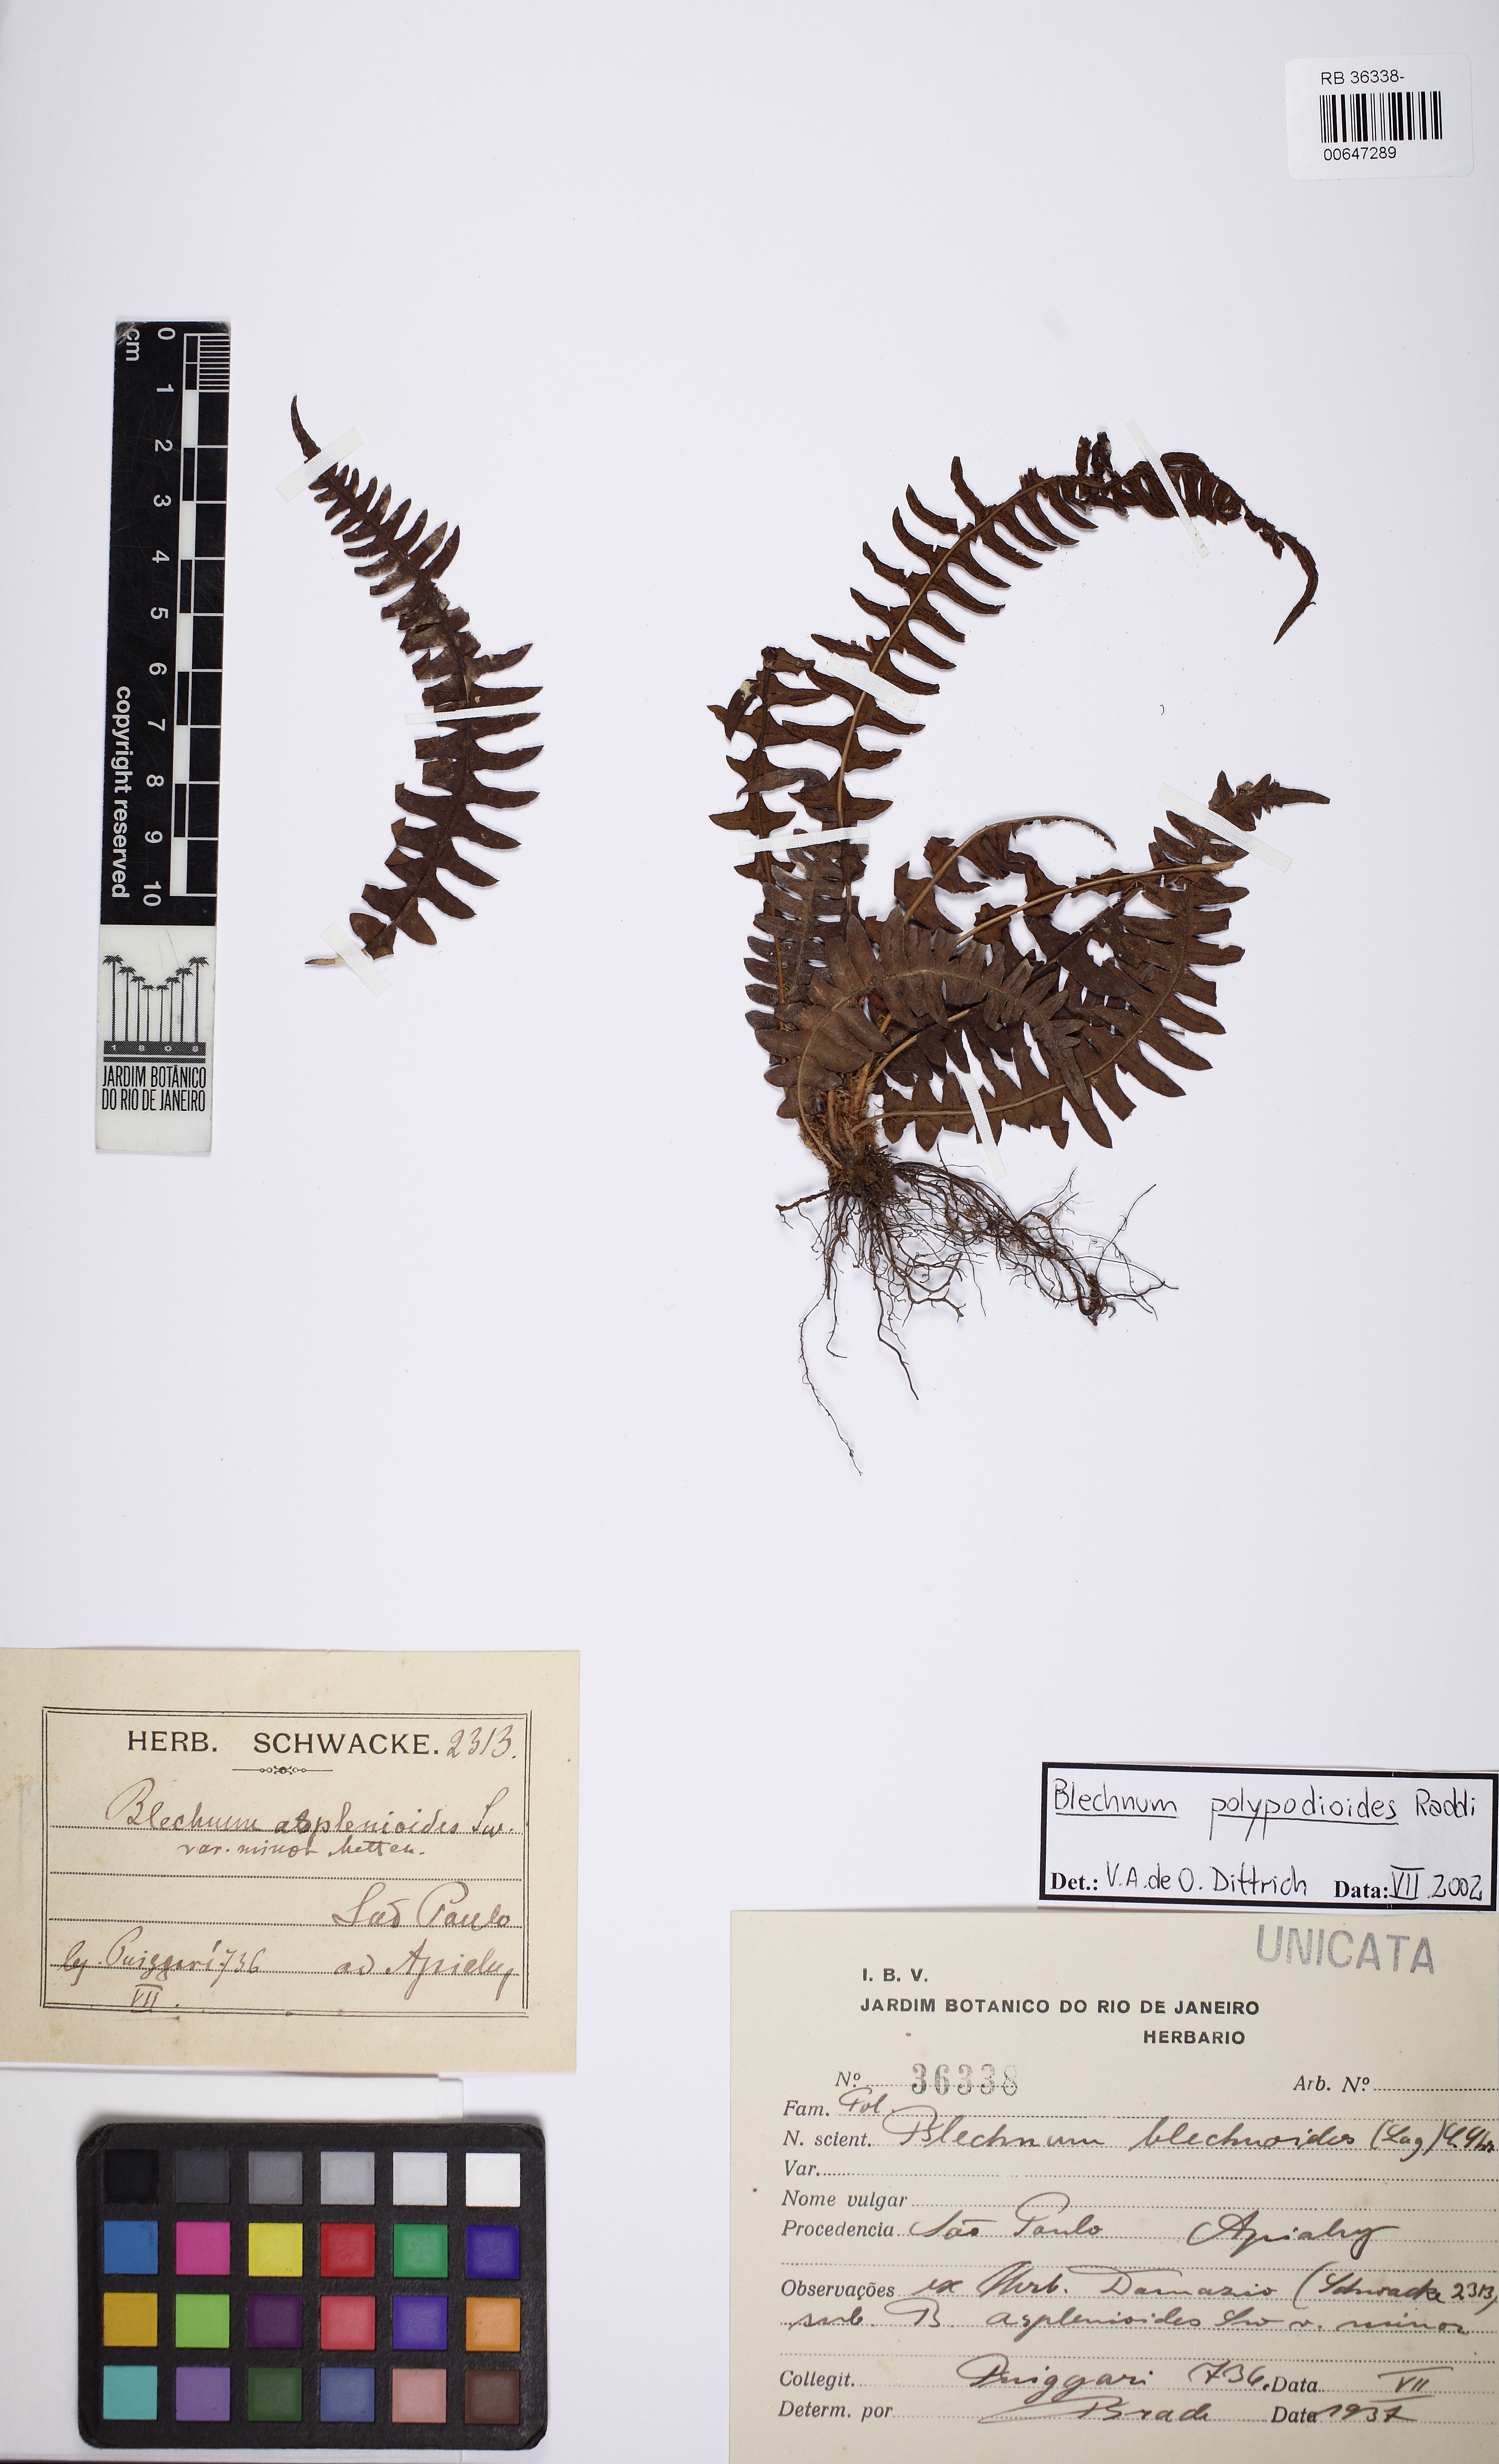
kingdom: Plantae
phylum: Tracheophyta
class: Polypodiopsida
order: Polypodiales
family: Blechnaceae
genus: Blechnum
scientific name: Blechnum polypodioides
